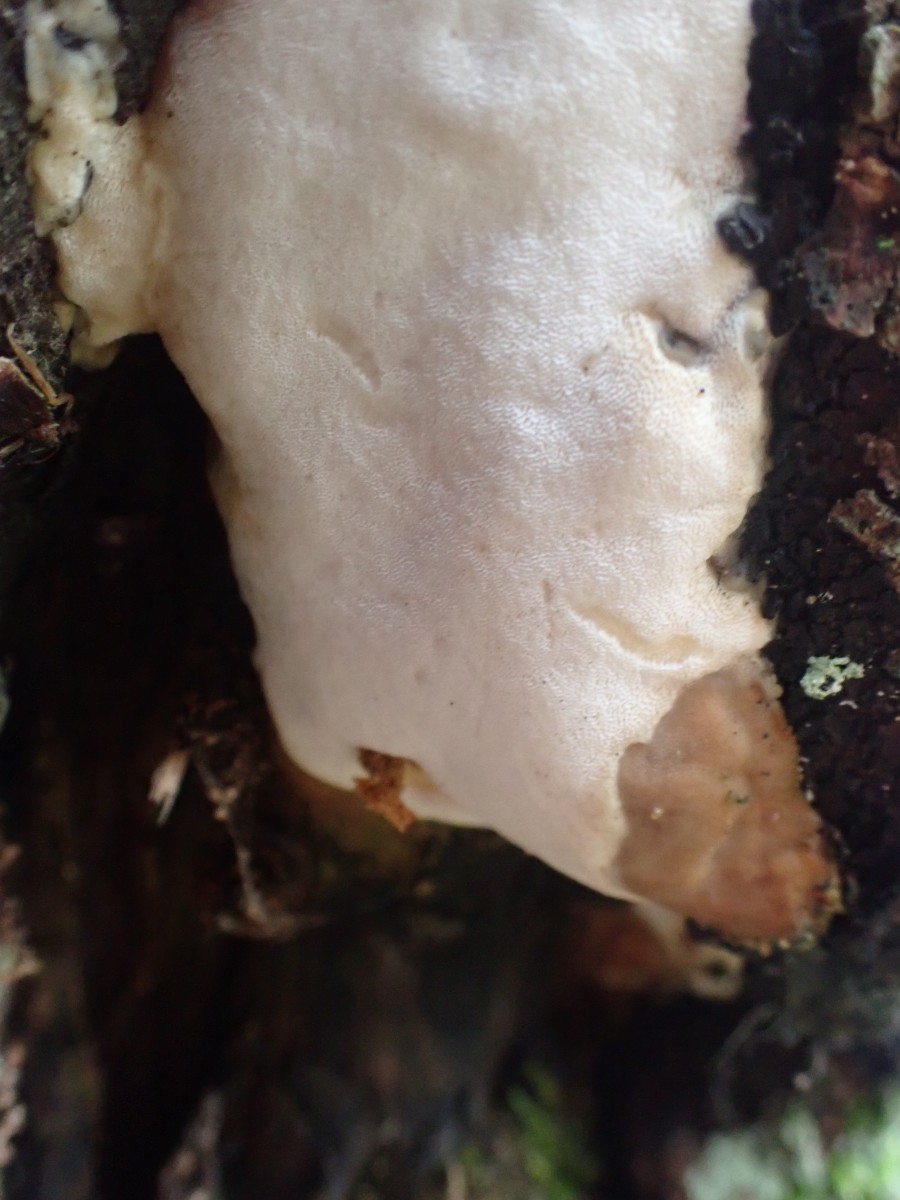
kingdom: Fungi
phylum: Basidiomycota
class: Agaricomycetes
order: Hymenochaetales
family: Oxyporaceae
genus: Oxyporus
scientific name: Oxyporus populinus
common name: sammenvokset trylleporesvamp
